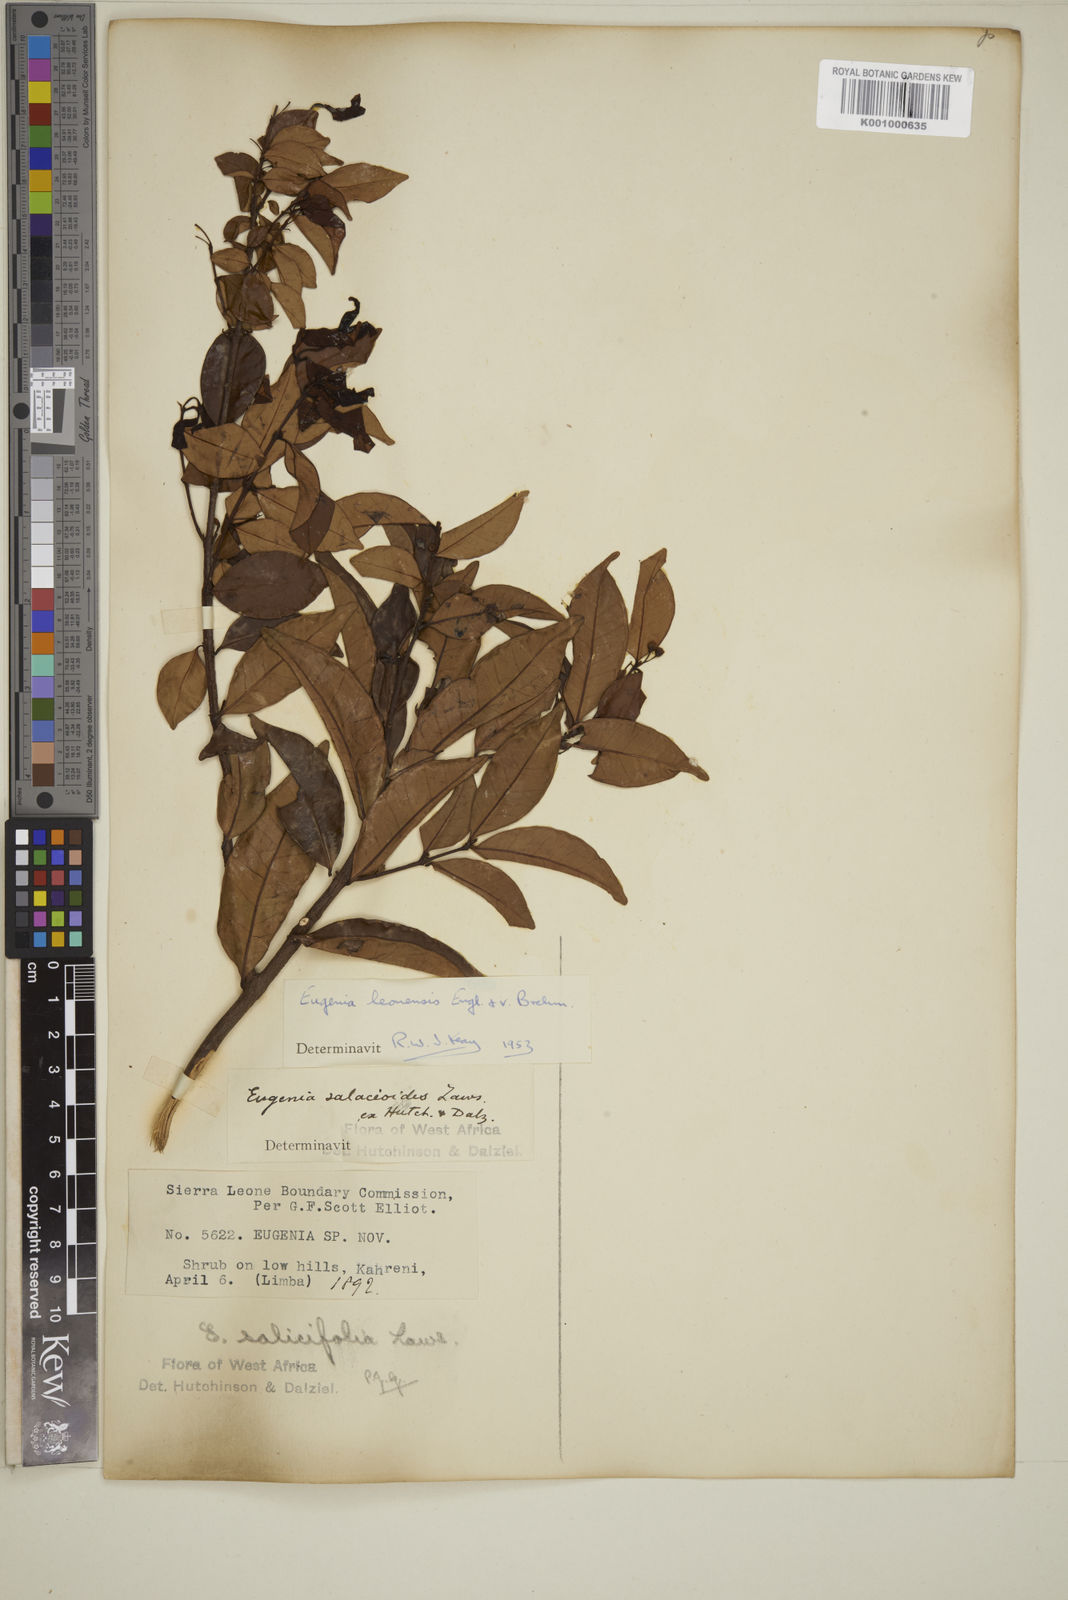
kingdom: Plantae
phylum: Tracheophyta
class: Magnoliopsida
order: Myrtales
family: Myrtaceae
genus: Eugenia
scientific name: Eugenia leonensis
